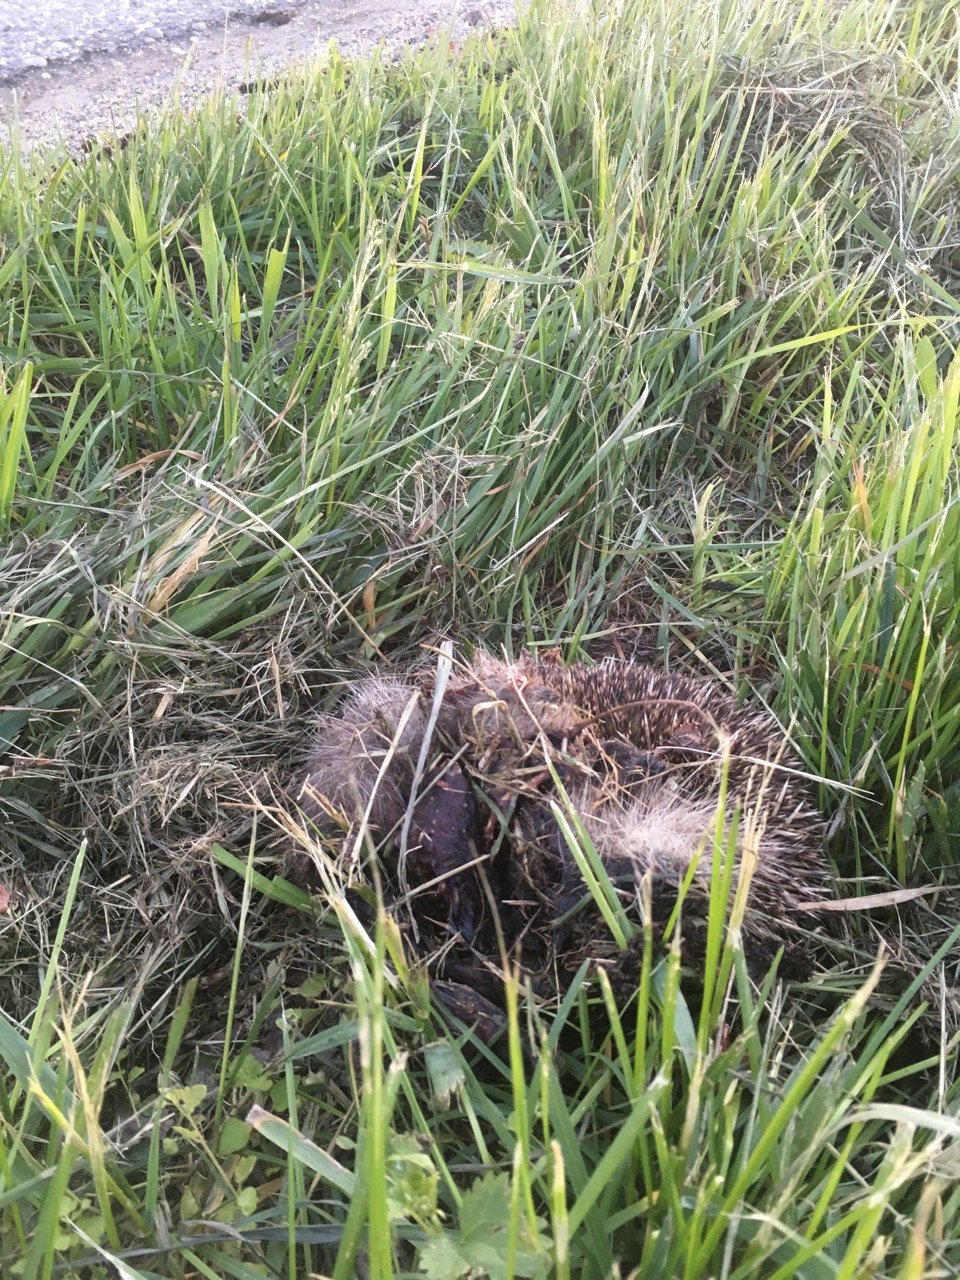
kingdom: Animalia
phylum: Chordata
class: Mammalia
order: Erinaceomorpha
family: Erinaceidae
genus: Erinaceus
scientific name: Erinaceus
